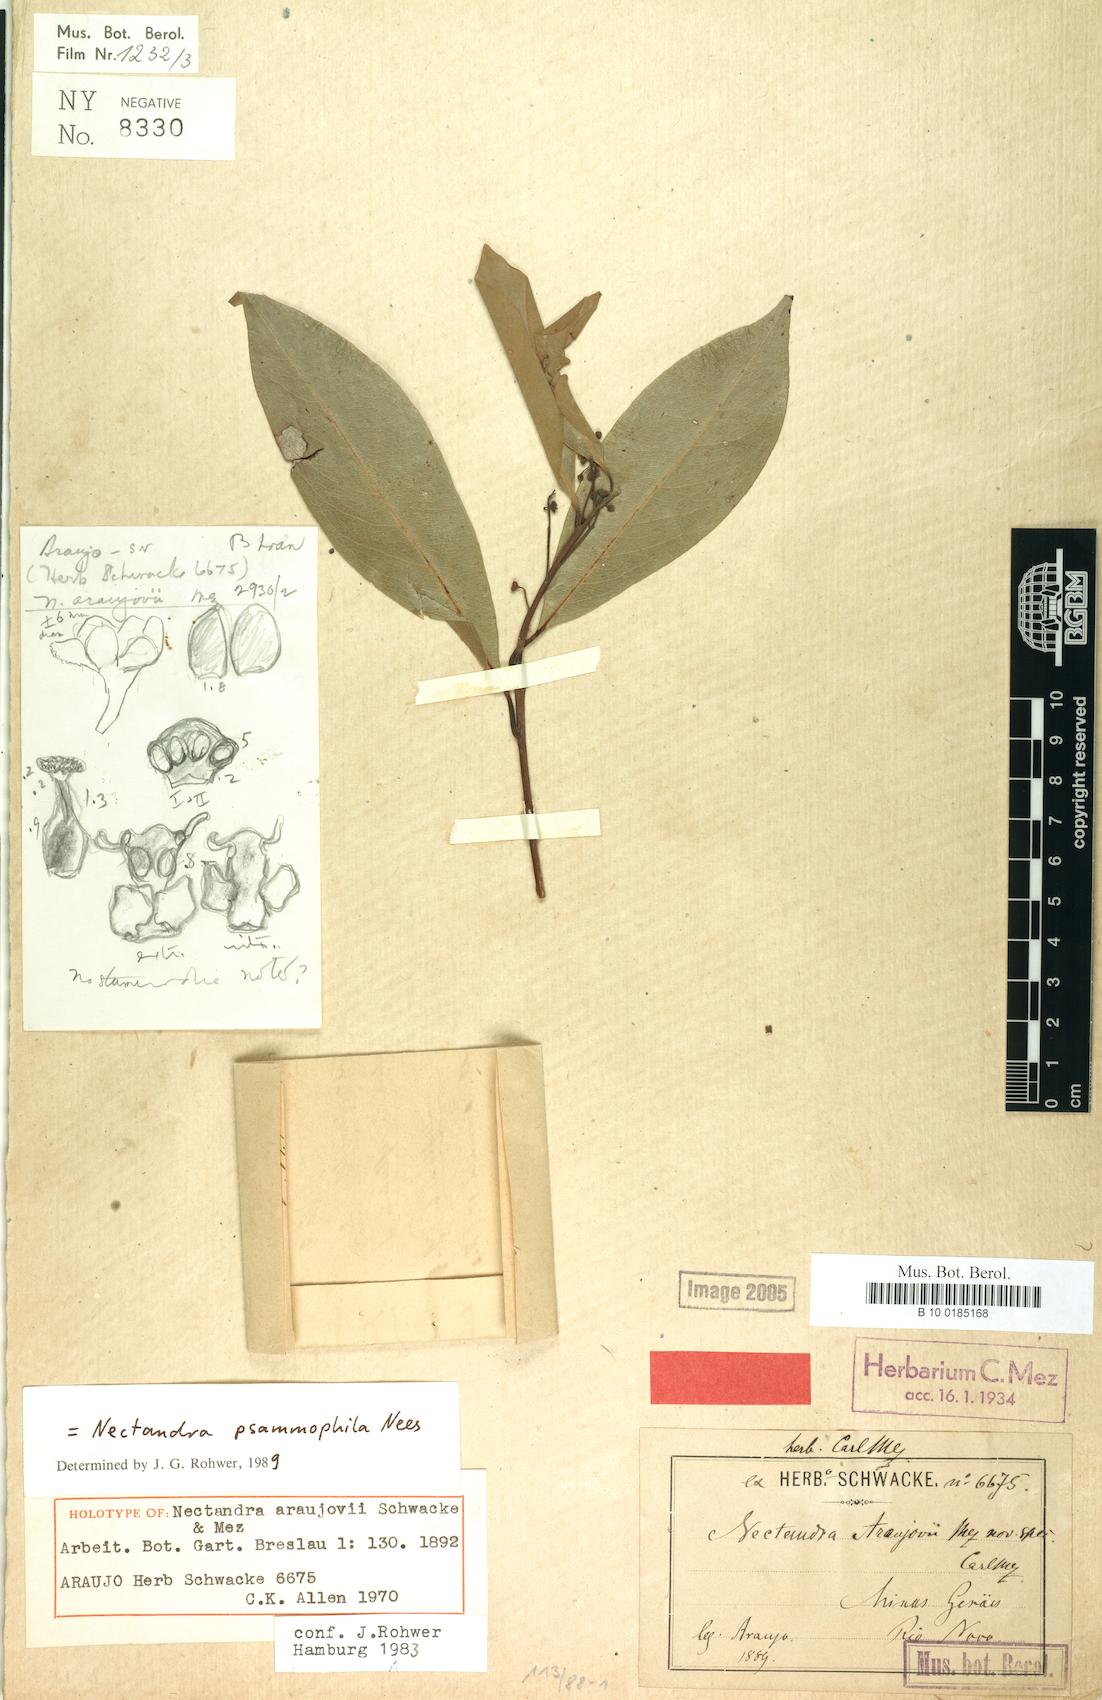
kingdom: Plantae
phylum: Tracheophyta
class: Magnoliopsida
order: Laurales
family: Lauraceae
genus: Nectandra
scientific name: Nectandra psammophila
